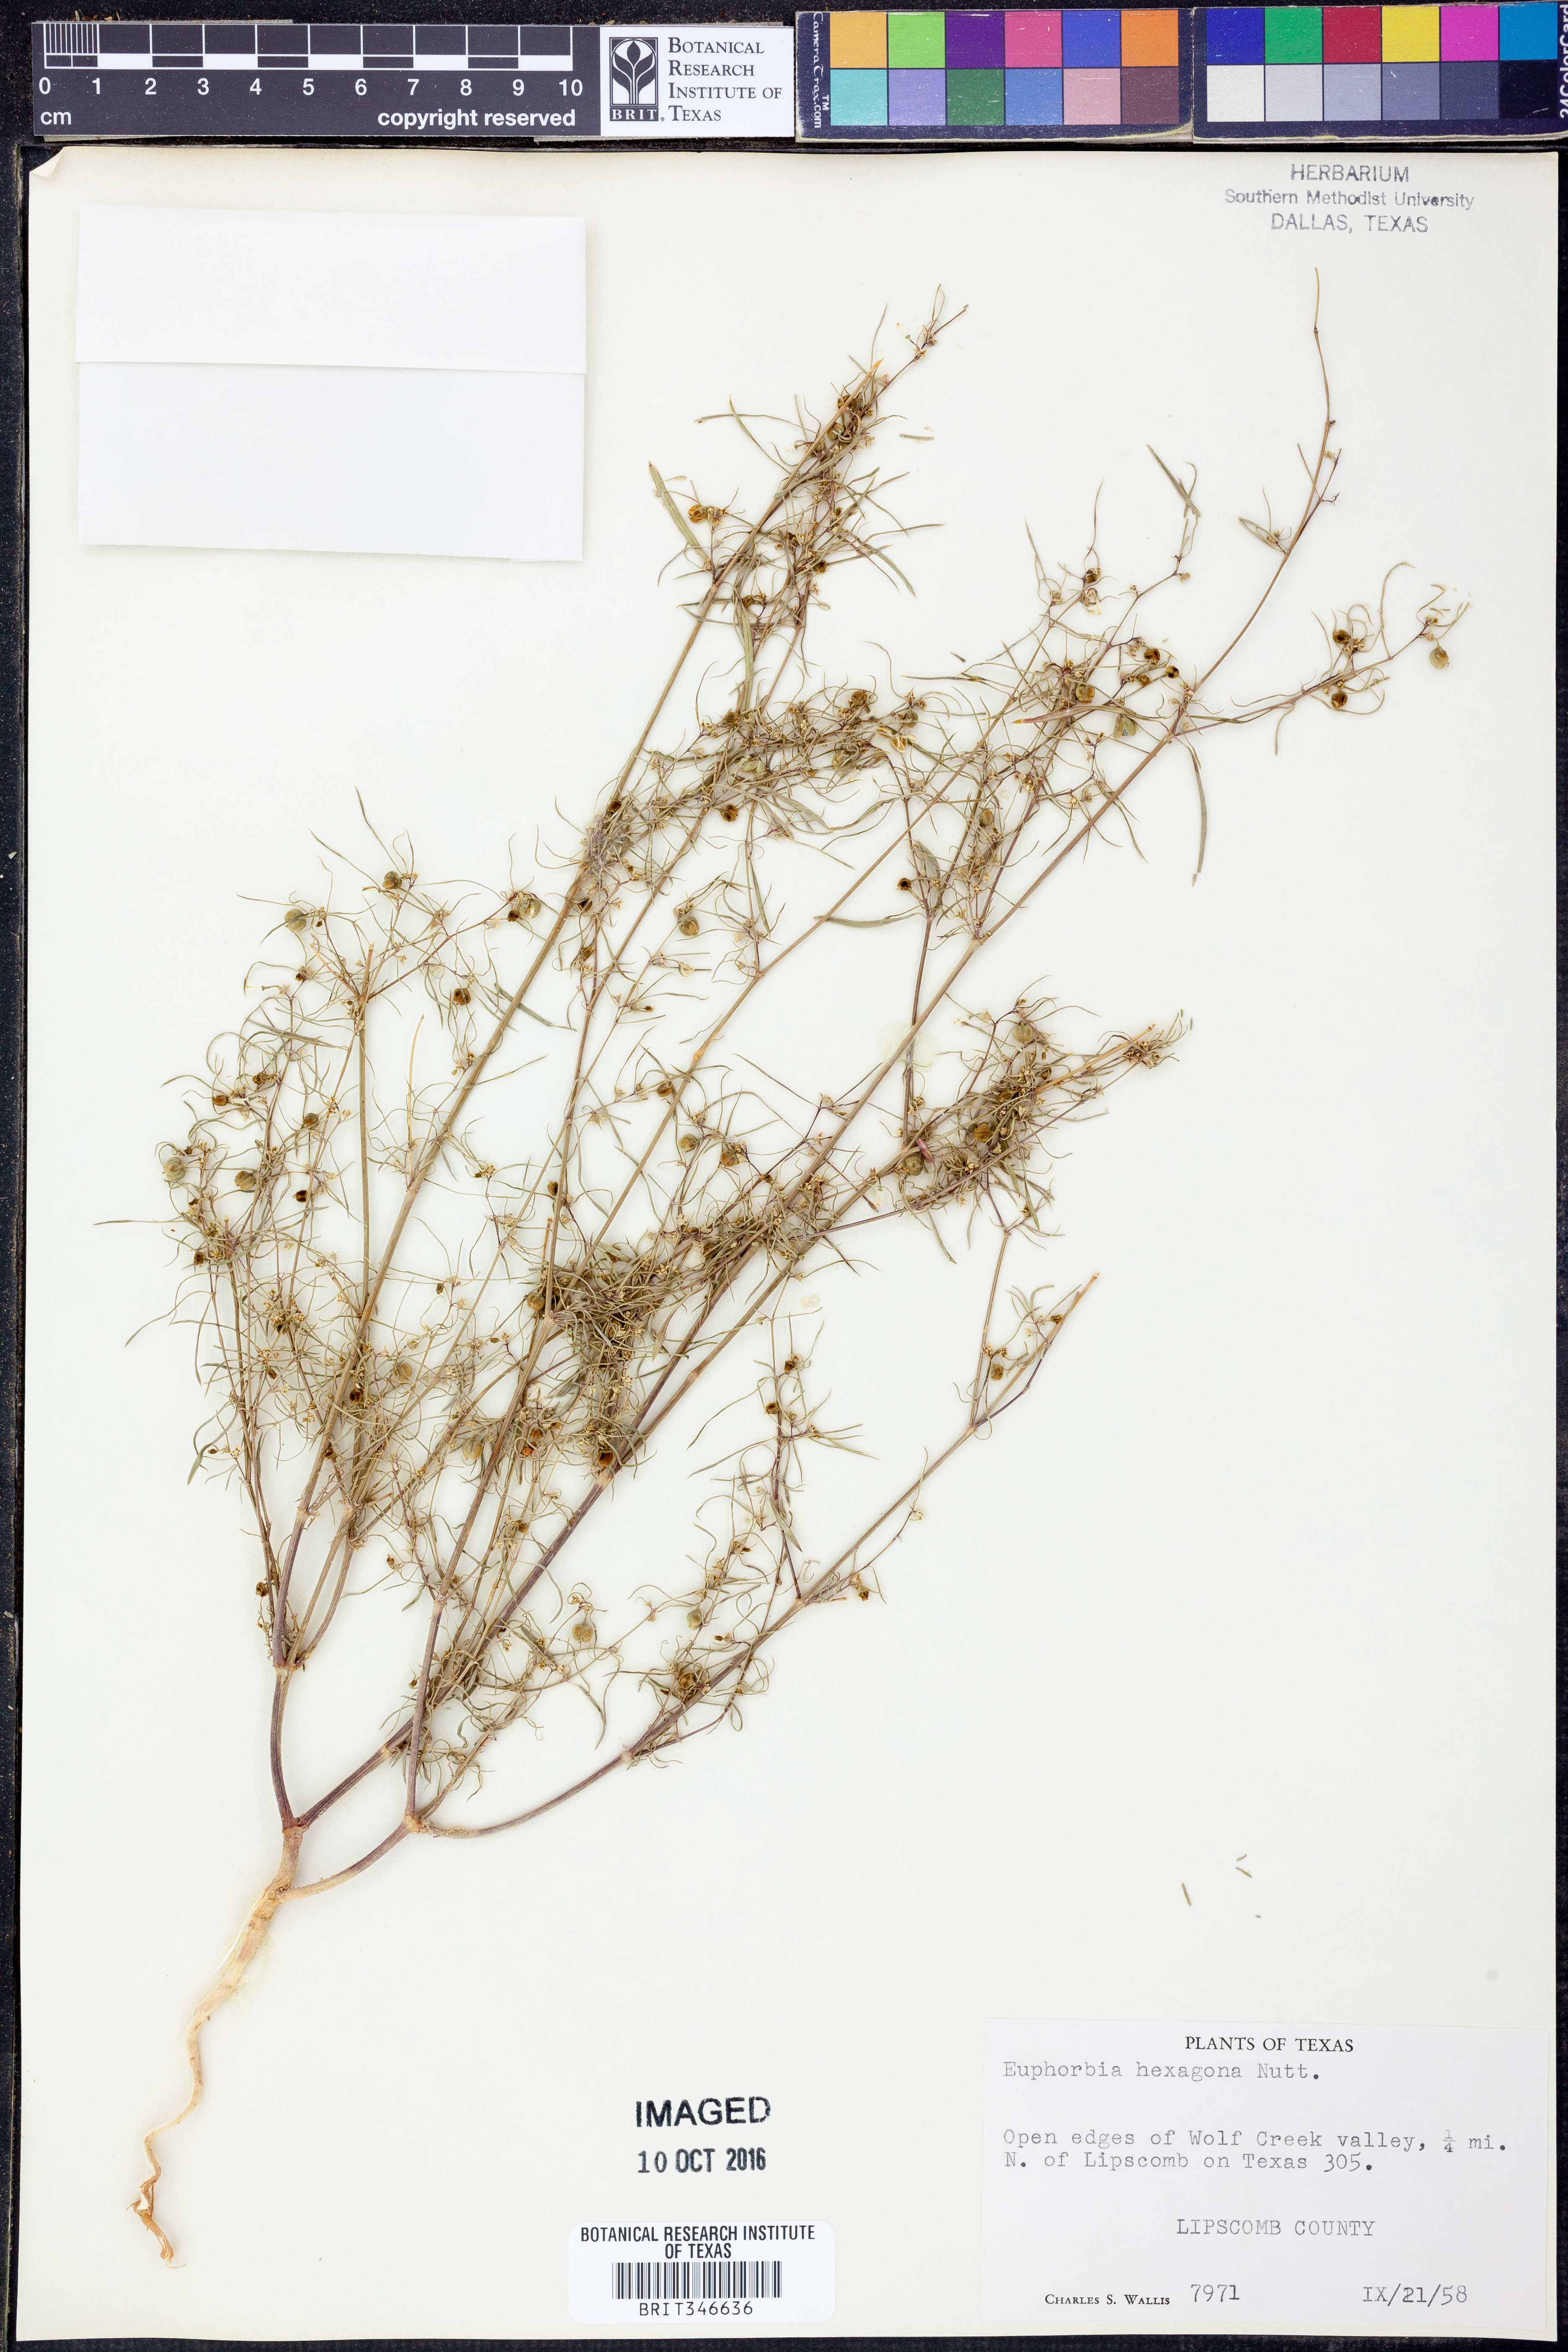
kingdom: Plantae
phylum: Tracheophyta
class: Magnoliopsida
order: Malpighiales
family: Euphorbiaceae
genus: Euphorbia
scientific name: Euphorbia hexagona
